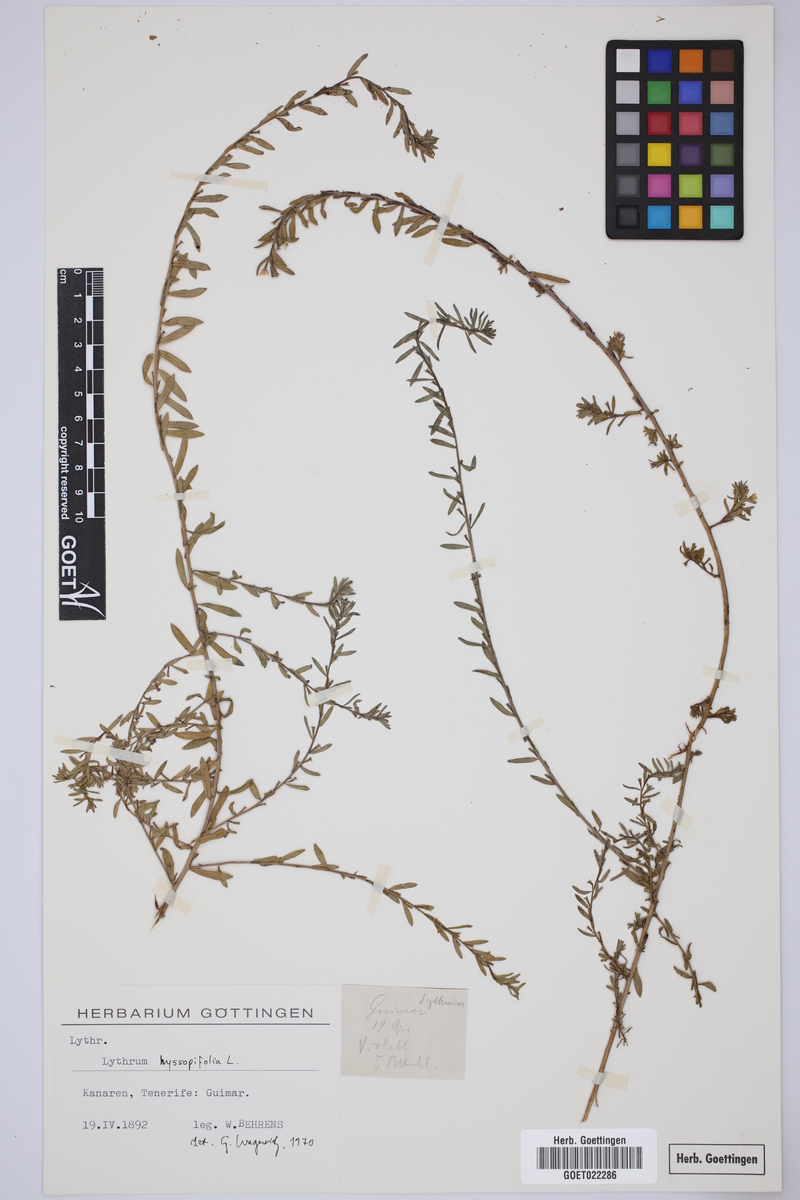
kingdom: Plantae
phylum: Tracheophyta
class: Magnoliopsida
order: Myrtales
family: Lythraceae
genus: Lythrum
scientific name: Lythrum hyssopifolia
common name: Grass-poly
